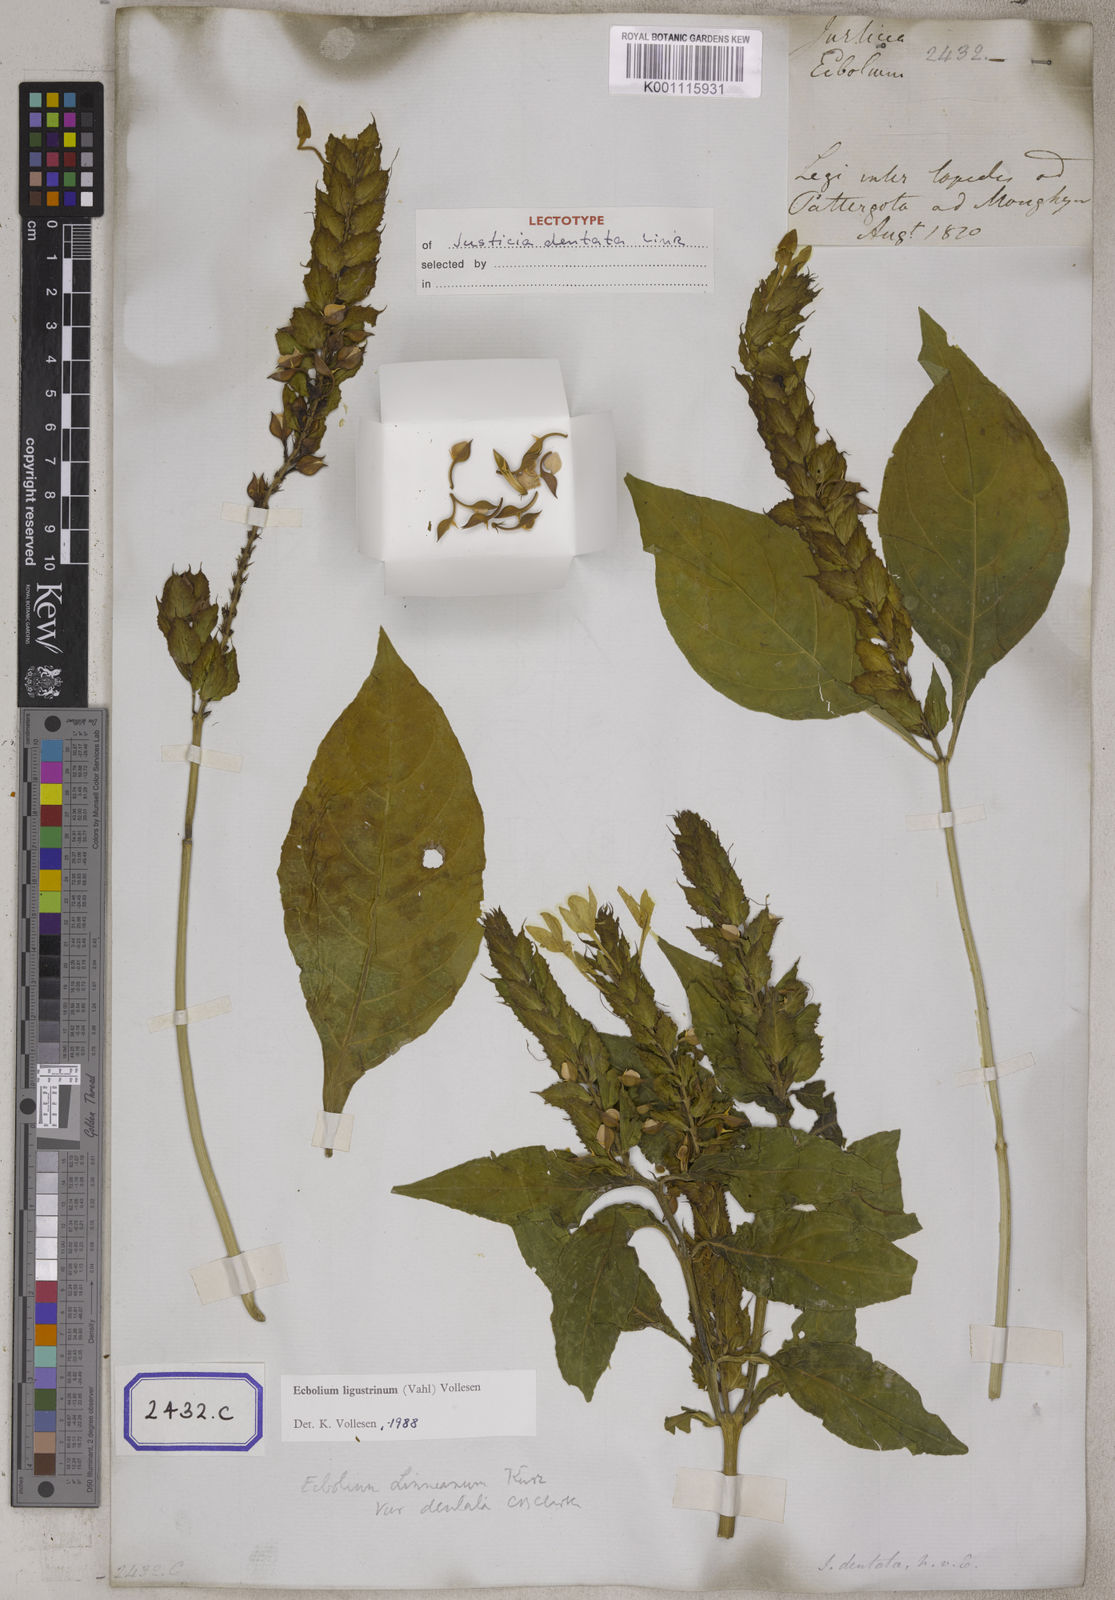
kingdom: Plantae
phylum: Tracheophyta
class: Magnoliopsida
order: Lamiales
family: Acanthaceae
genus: Ecbolium
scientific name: Ecbolium ligustrinum
